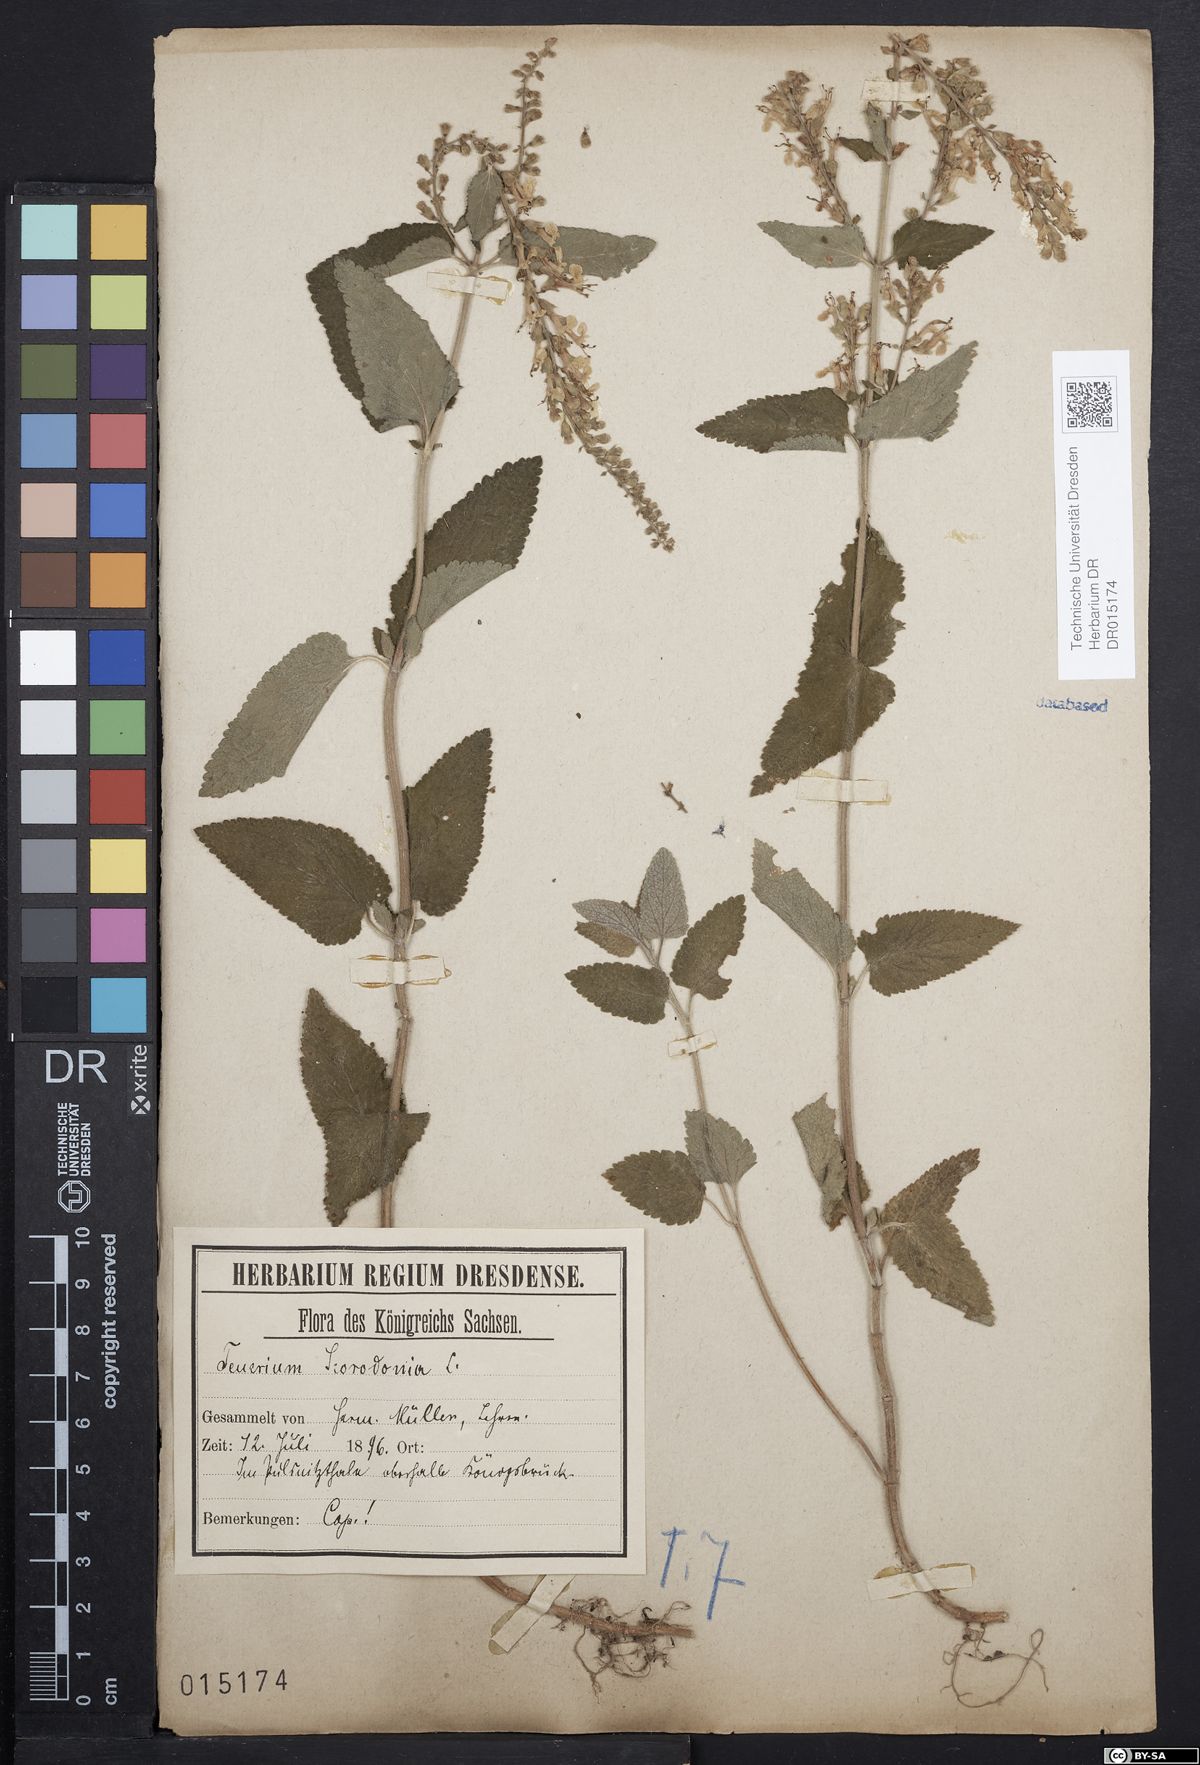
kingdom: Plantae
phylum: Tracheophyta
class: Magnoliopsida
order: Lamiales
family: Lamiaceae
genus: Teucrium
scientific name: Teucrium scorodonia
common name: Woodland germander
